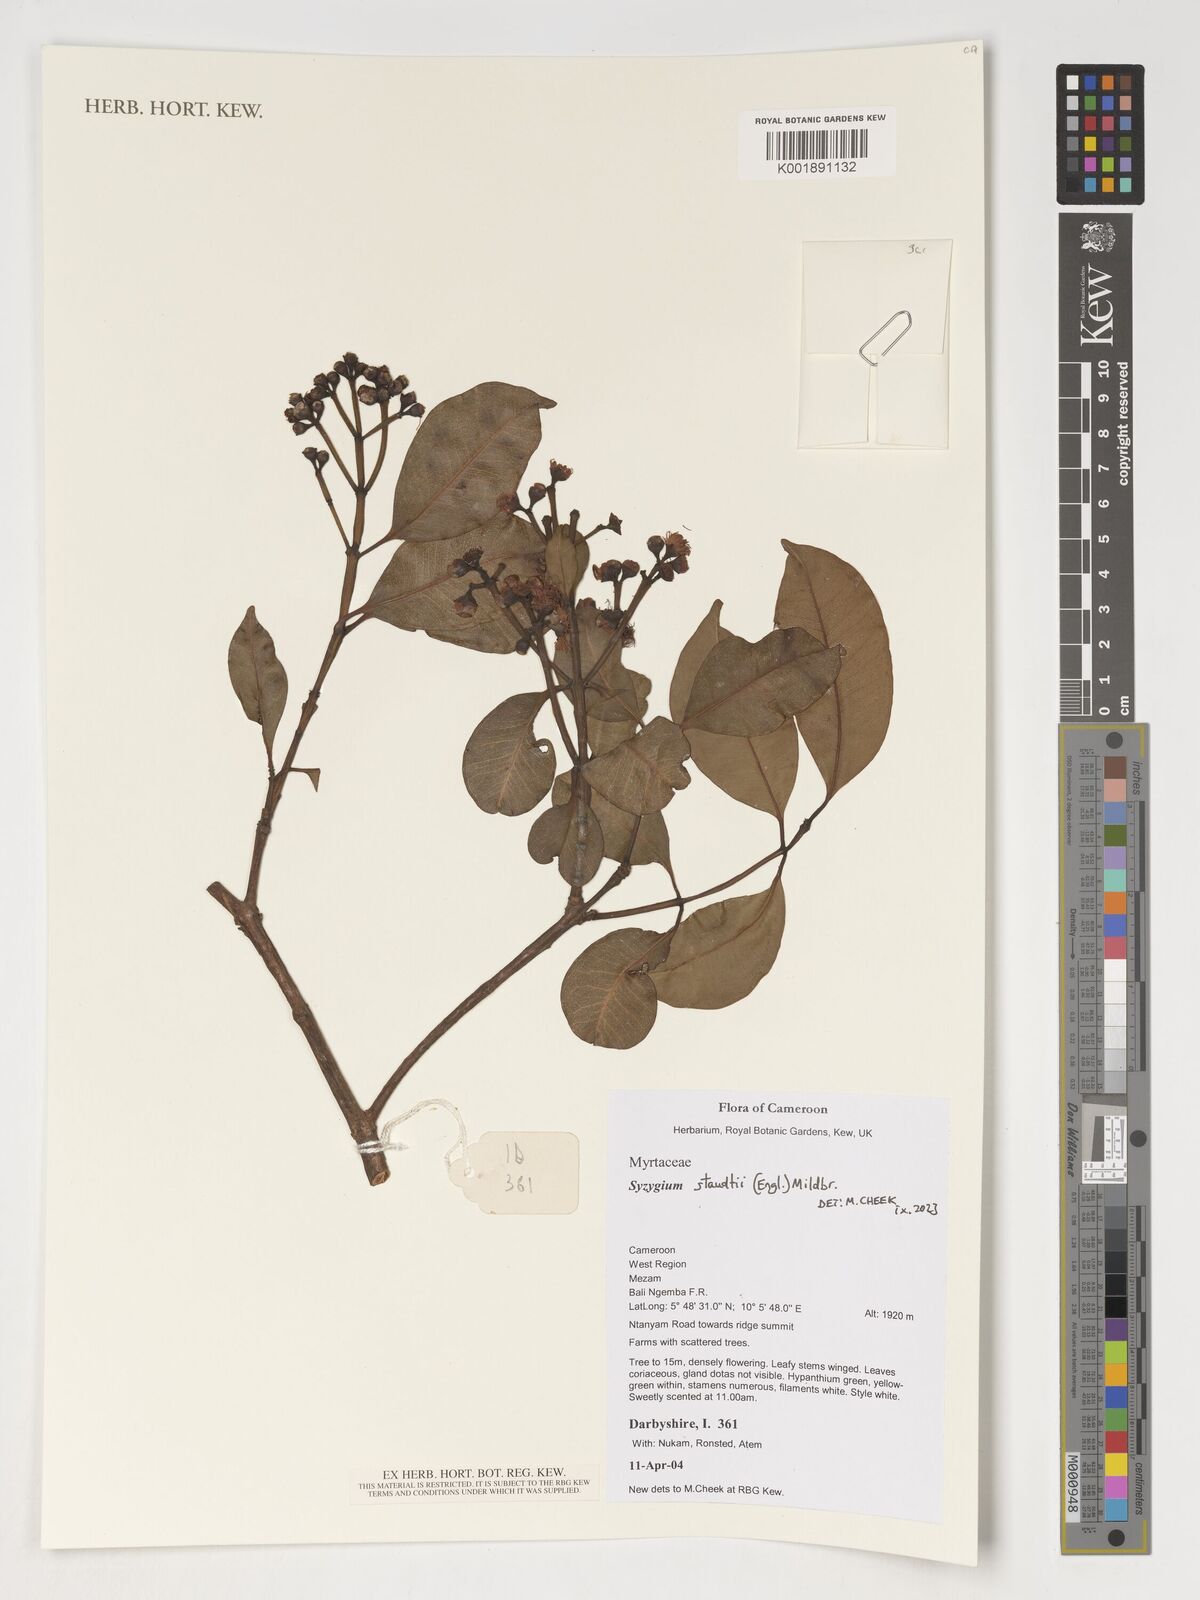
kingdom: Plantae
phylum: Tracheophyta
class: Magnoliopsida
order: Myrtales
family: Myrtaceae
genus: Syzygium
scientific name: Syzygium staudtii
